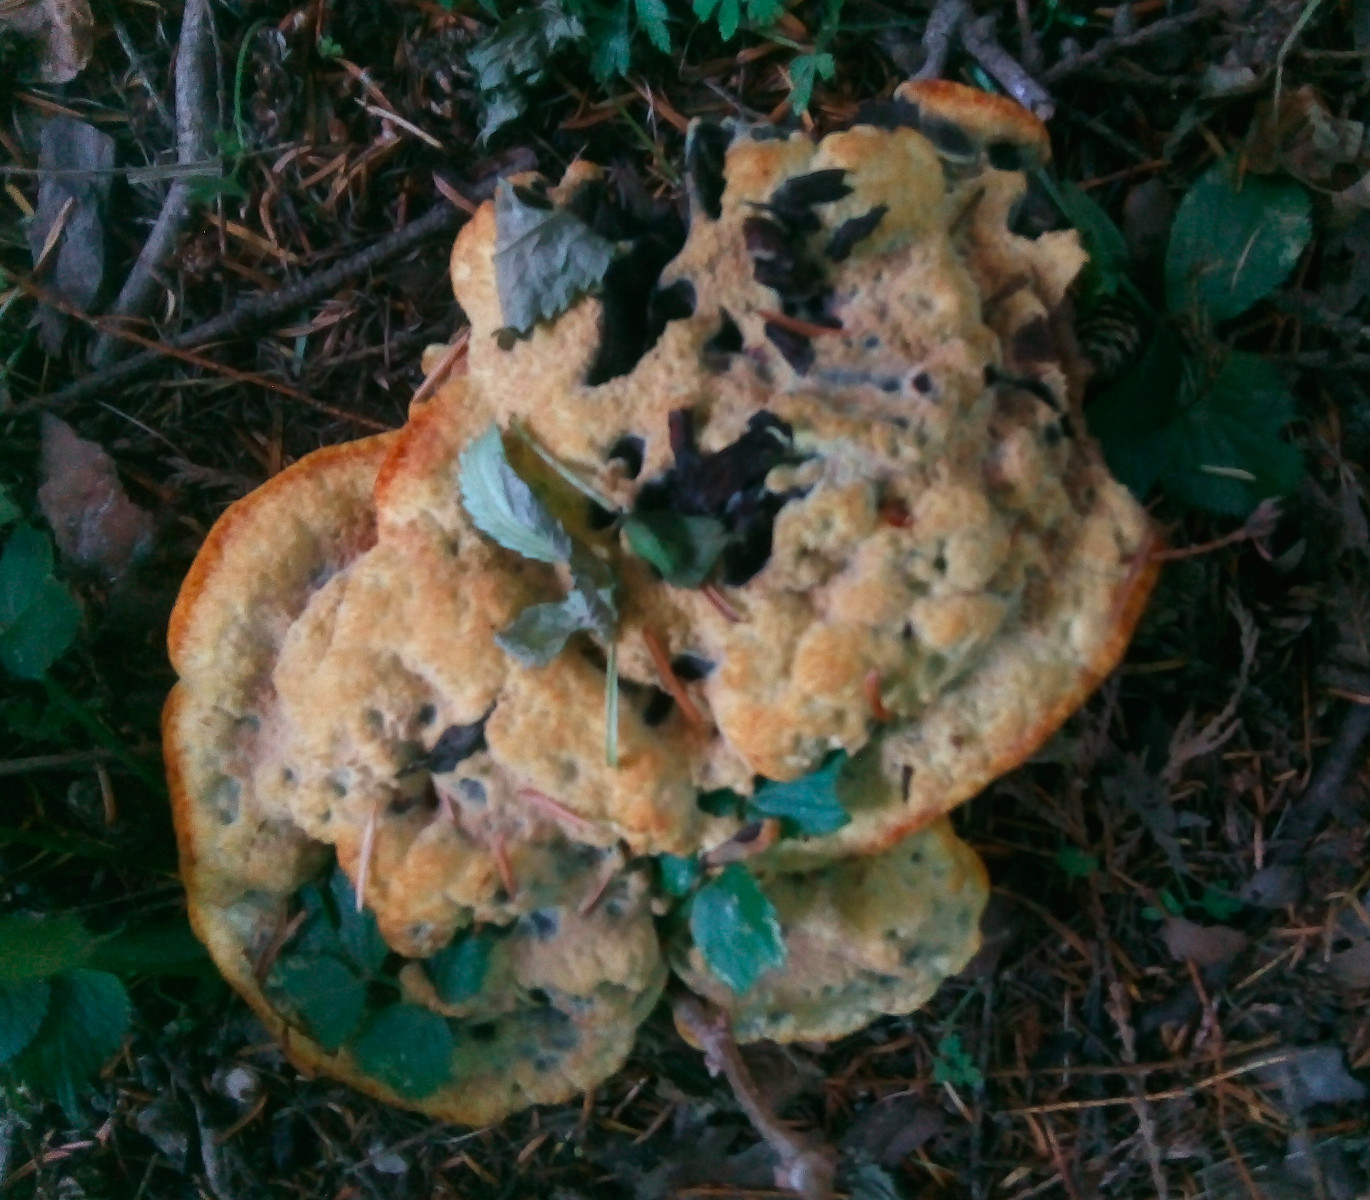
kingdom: Fungi
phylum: Basidiomycota
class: Agaricomycetes
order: Polyporales
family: Laetiporaceae
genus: Phaeolus
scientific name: Phaeolus schweinitzii
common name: brunporesvamp
